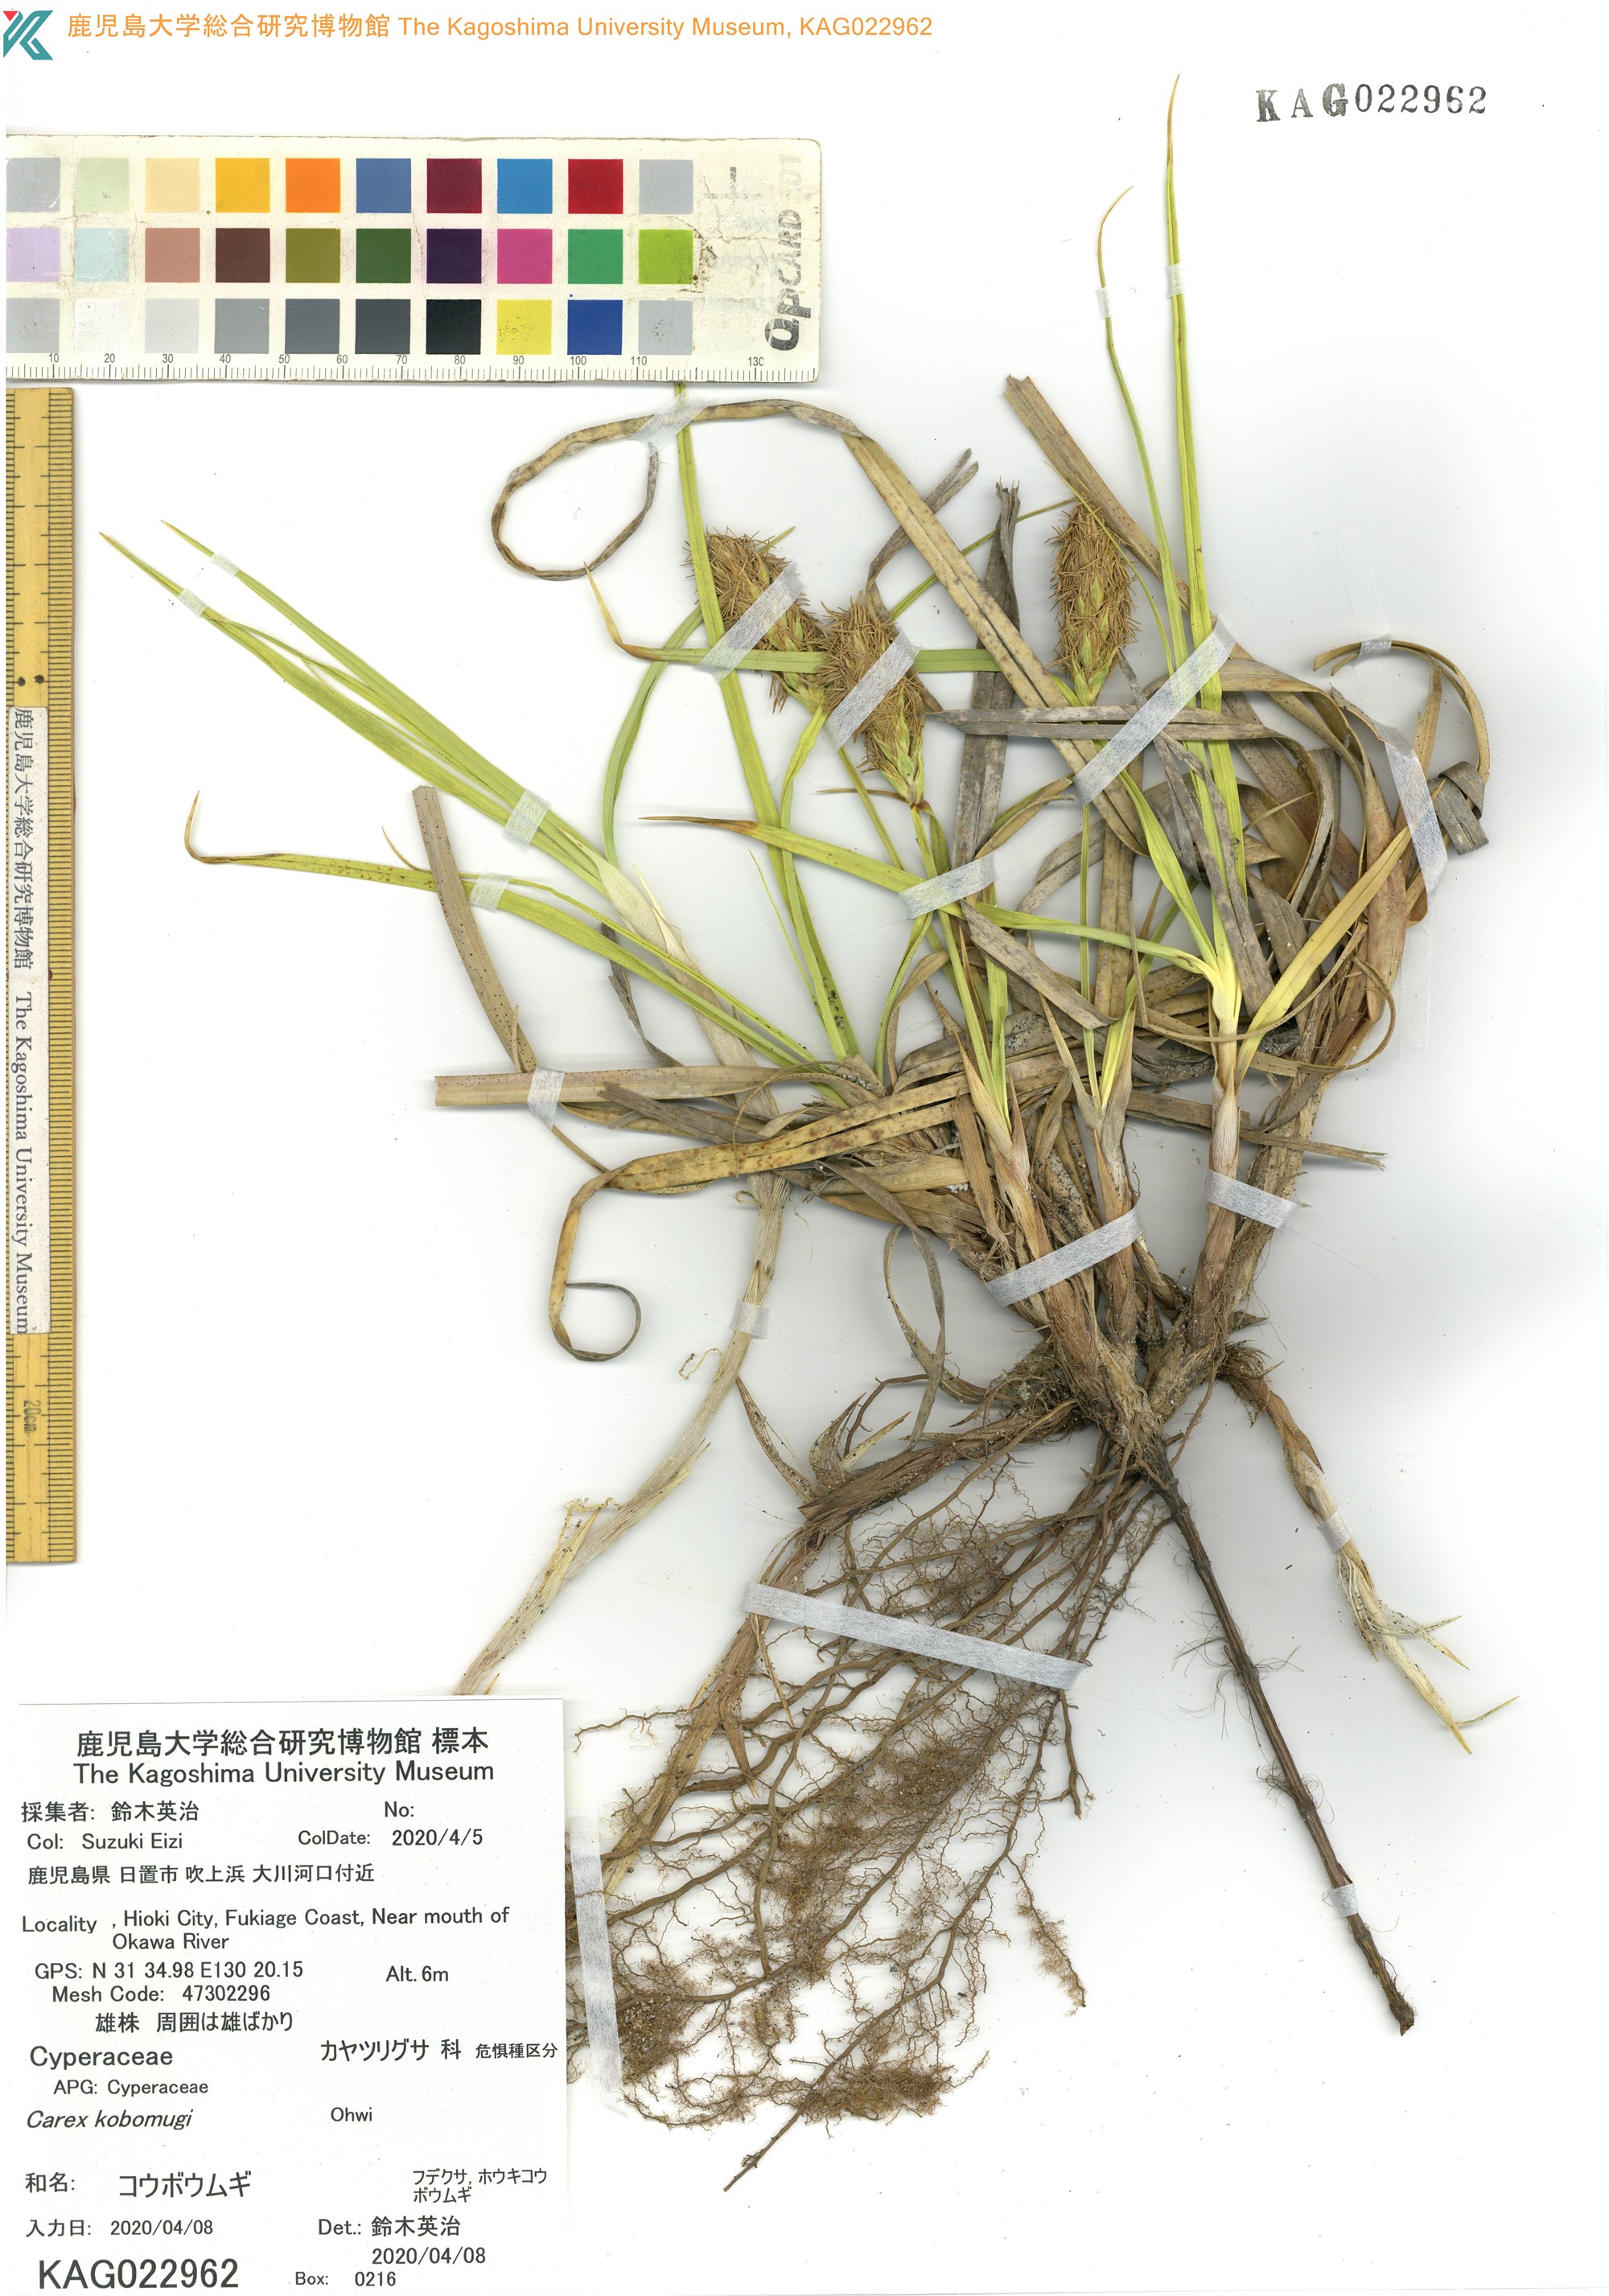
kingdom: Plantae
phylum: Tracheophyta
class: Liliopsida
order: Poales
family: Cyperaceae
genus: Carex
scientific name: Carex kobomugi
